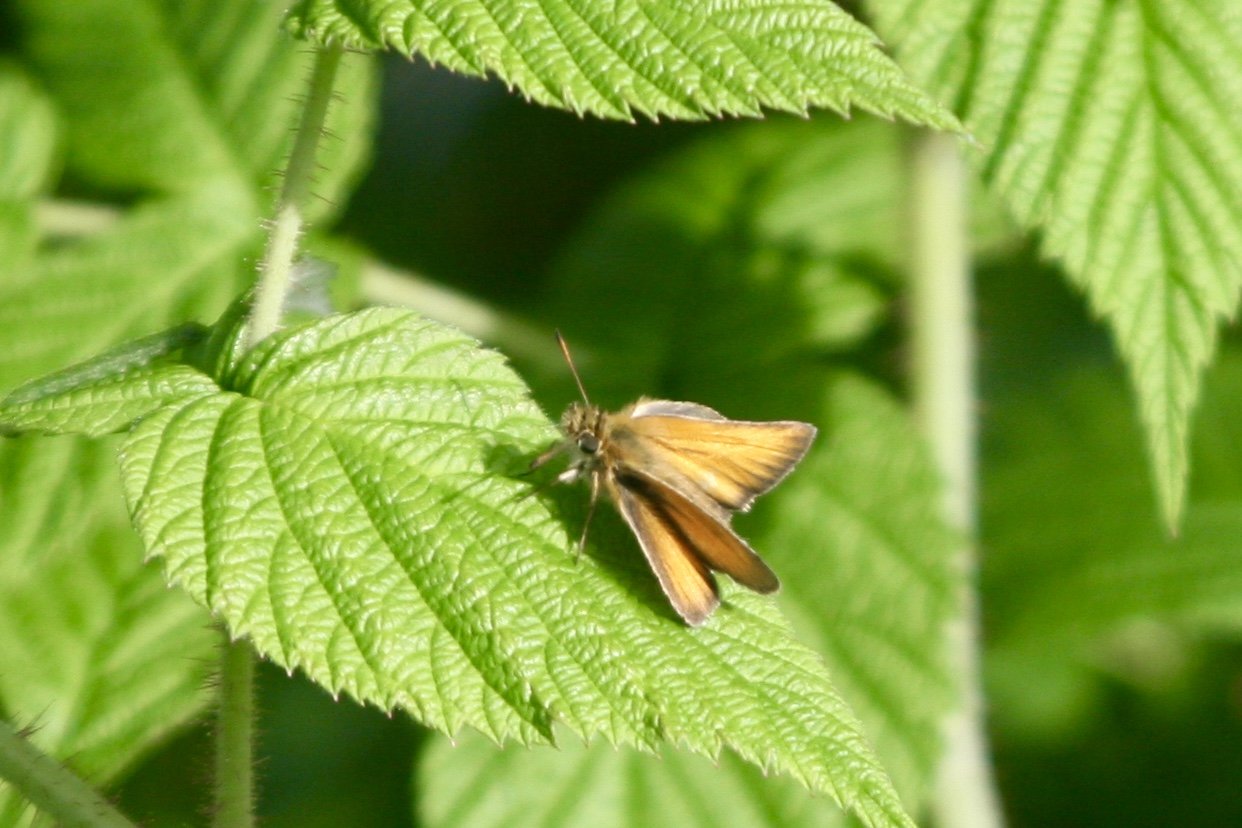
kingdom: Animalia
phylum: Arthropoda
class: Insecta
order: Lepidoptera
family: Hesperiidae
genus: Thymelicus
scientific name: Thymelicus lineola
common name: European Skipper
